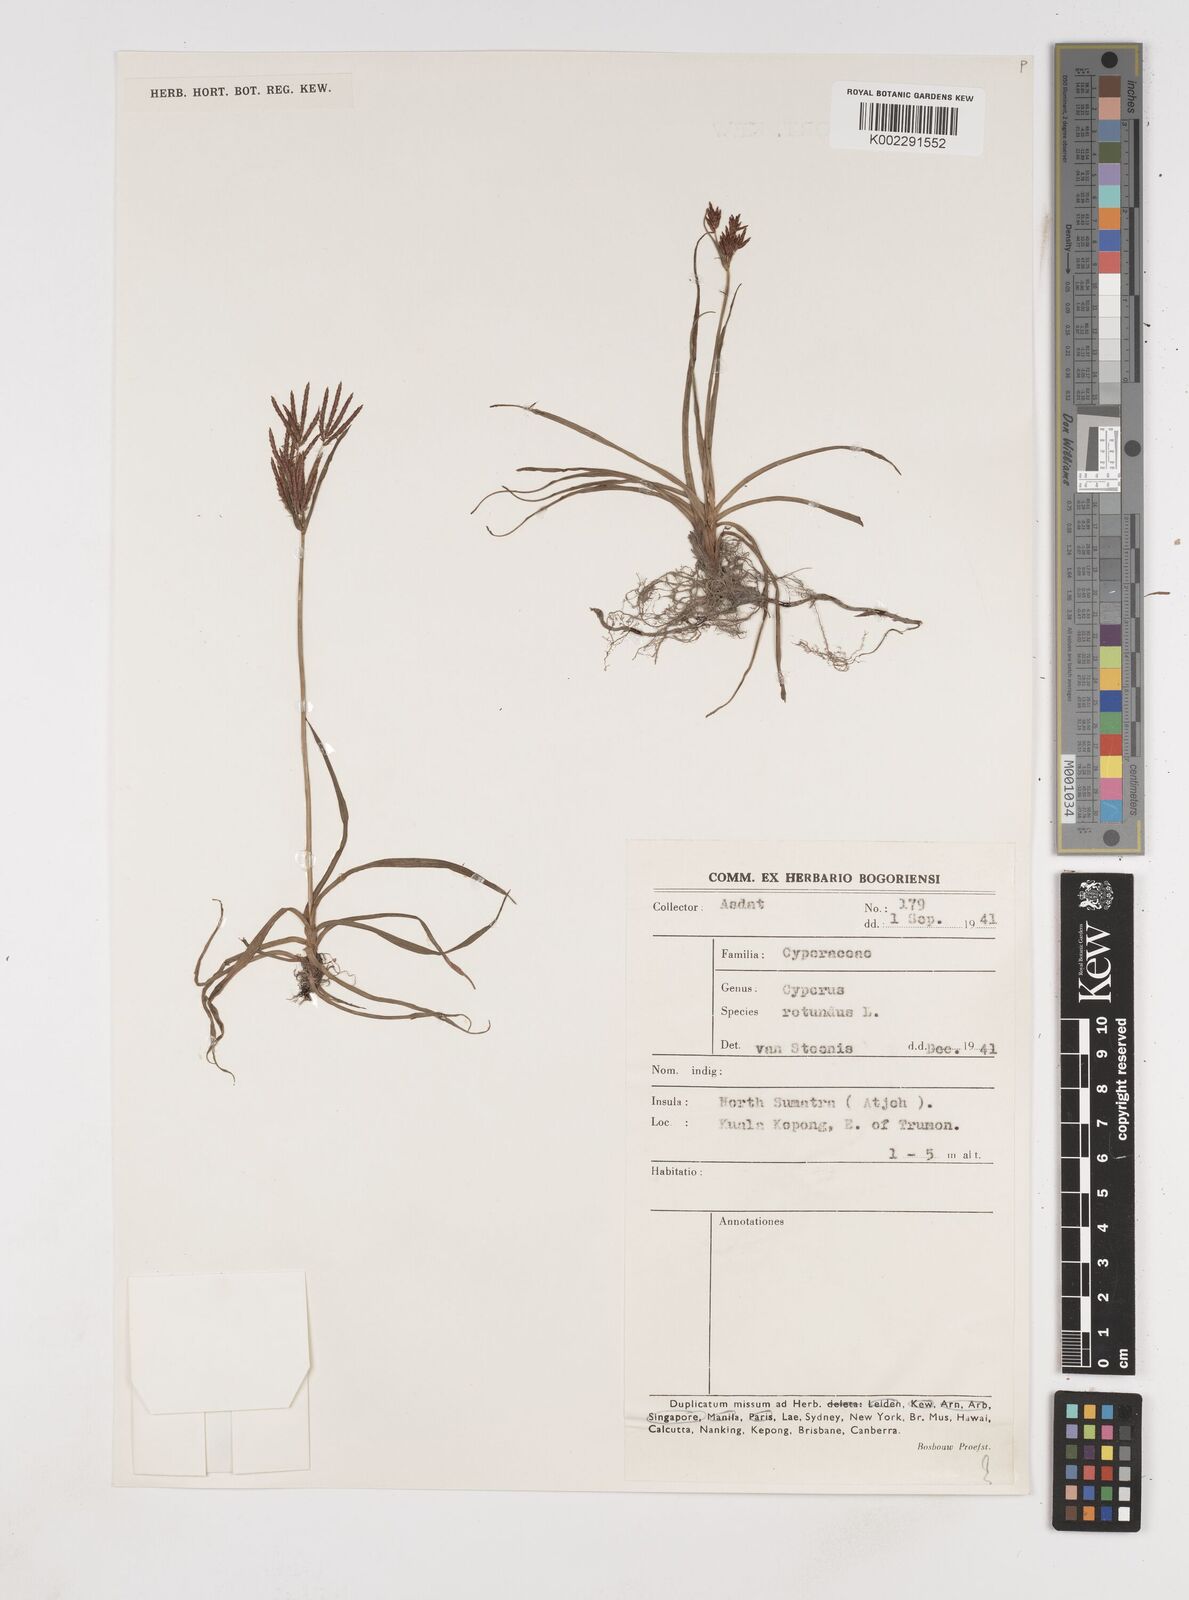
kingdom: Plantae
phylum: Tracheophyta
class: Liliopsida
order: Poales
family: Cyperaceae
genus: Cyperus
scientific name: Cyperus rotundus
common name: Nutgrass
